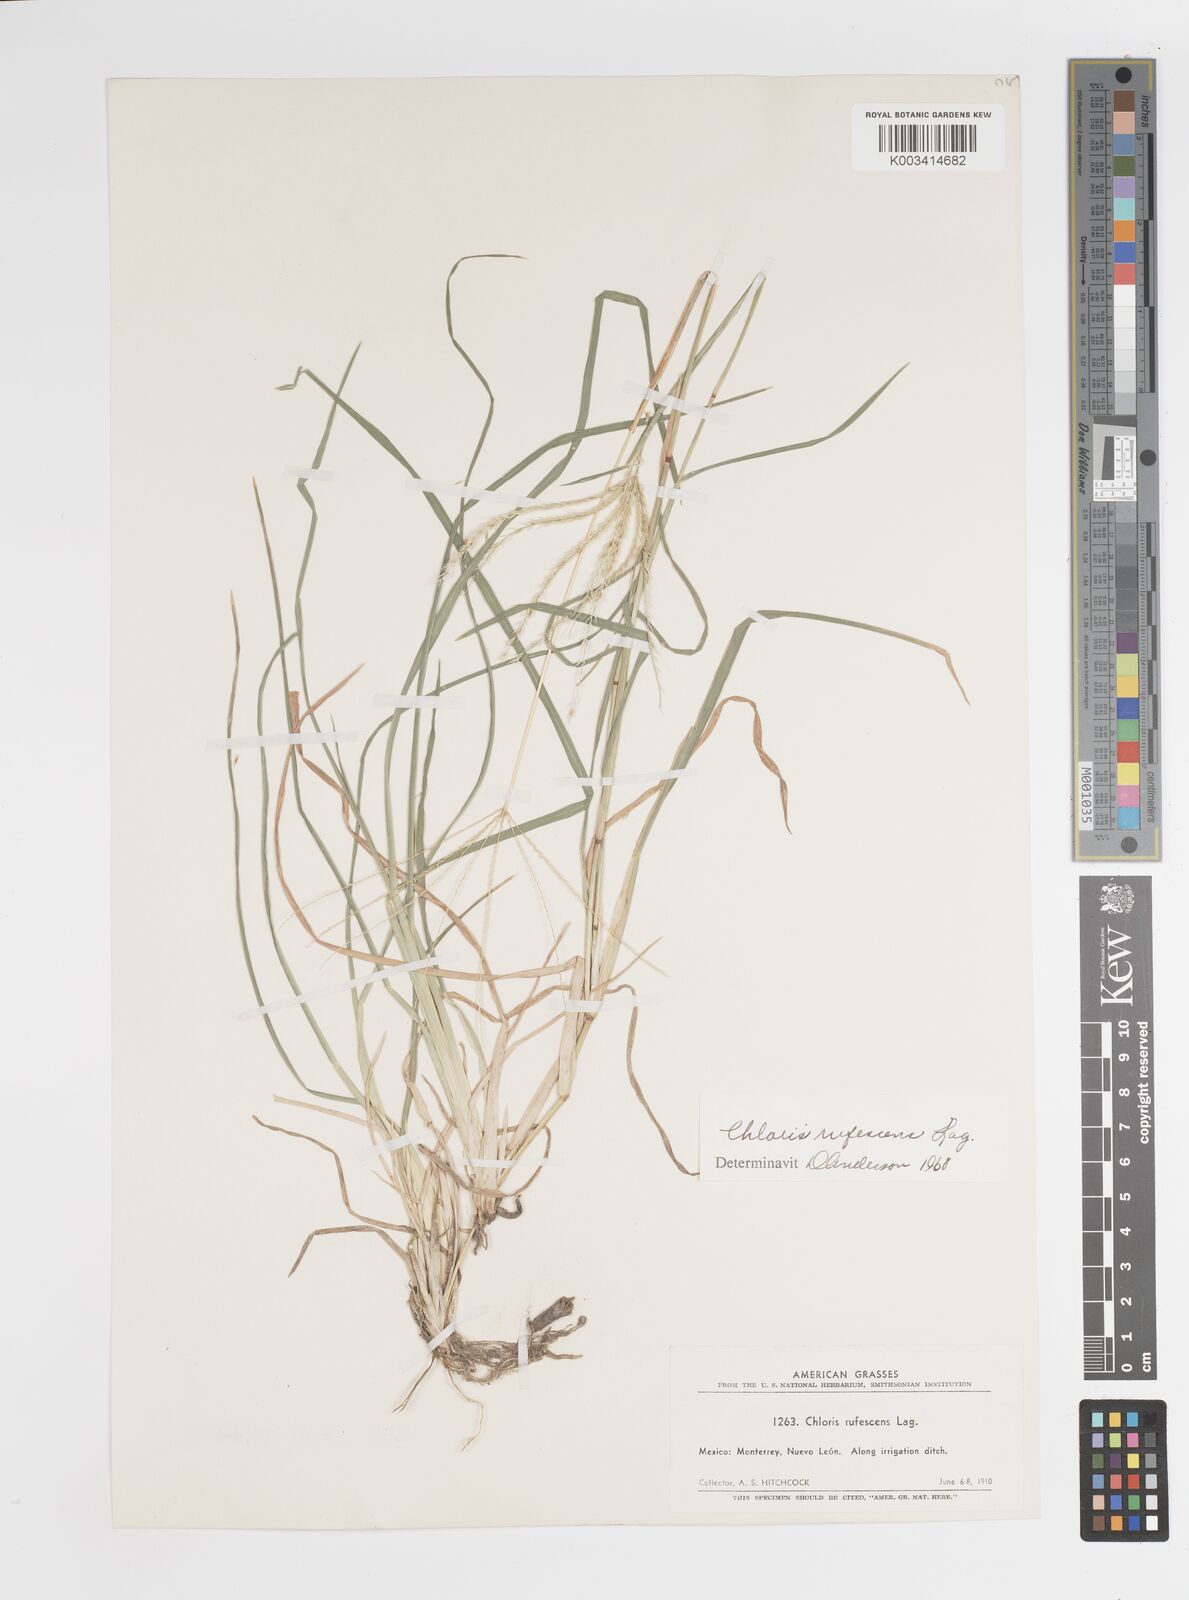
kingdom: Plantae
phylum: Tracheophyta
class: Liliopsida
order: Poales
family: Poaceae
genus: Chloris
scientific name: Chloris rufescens
